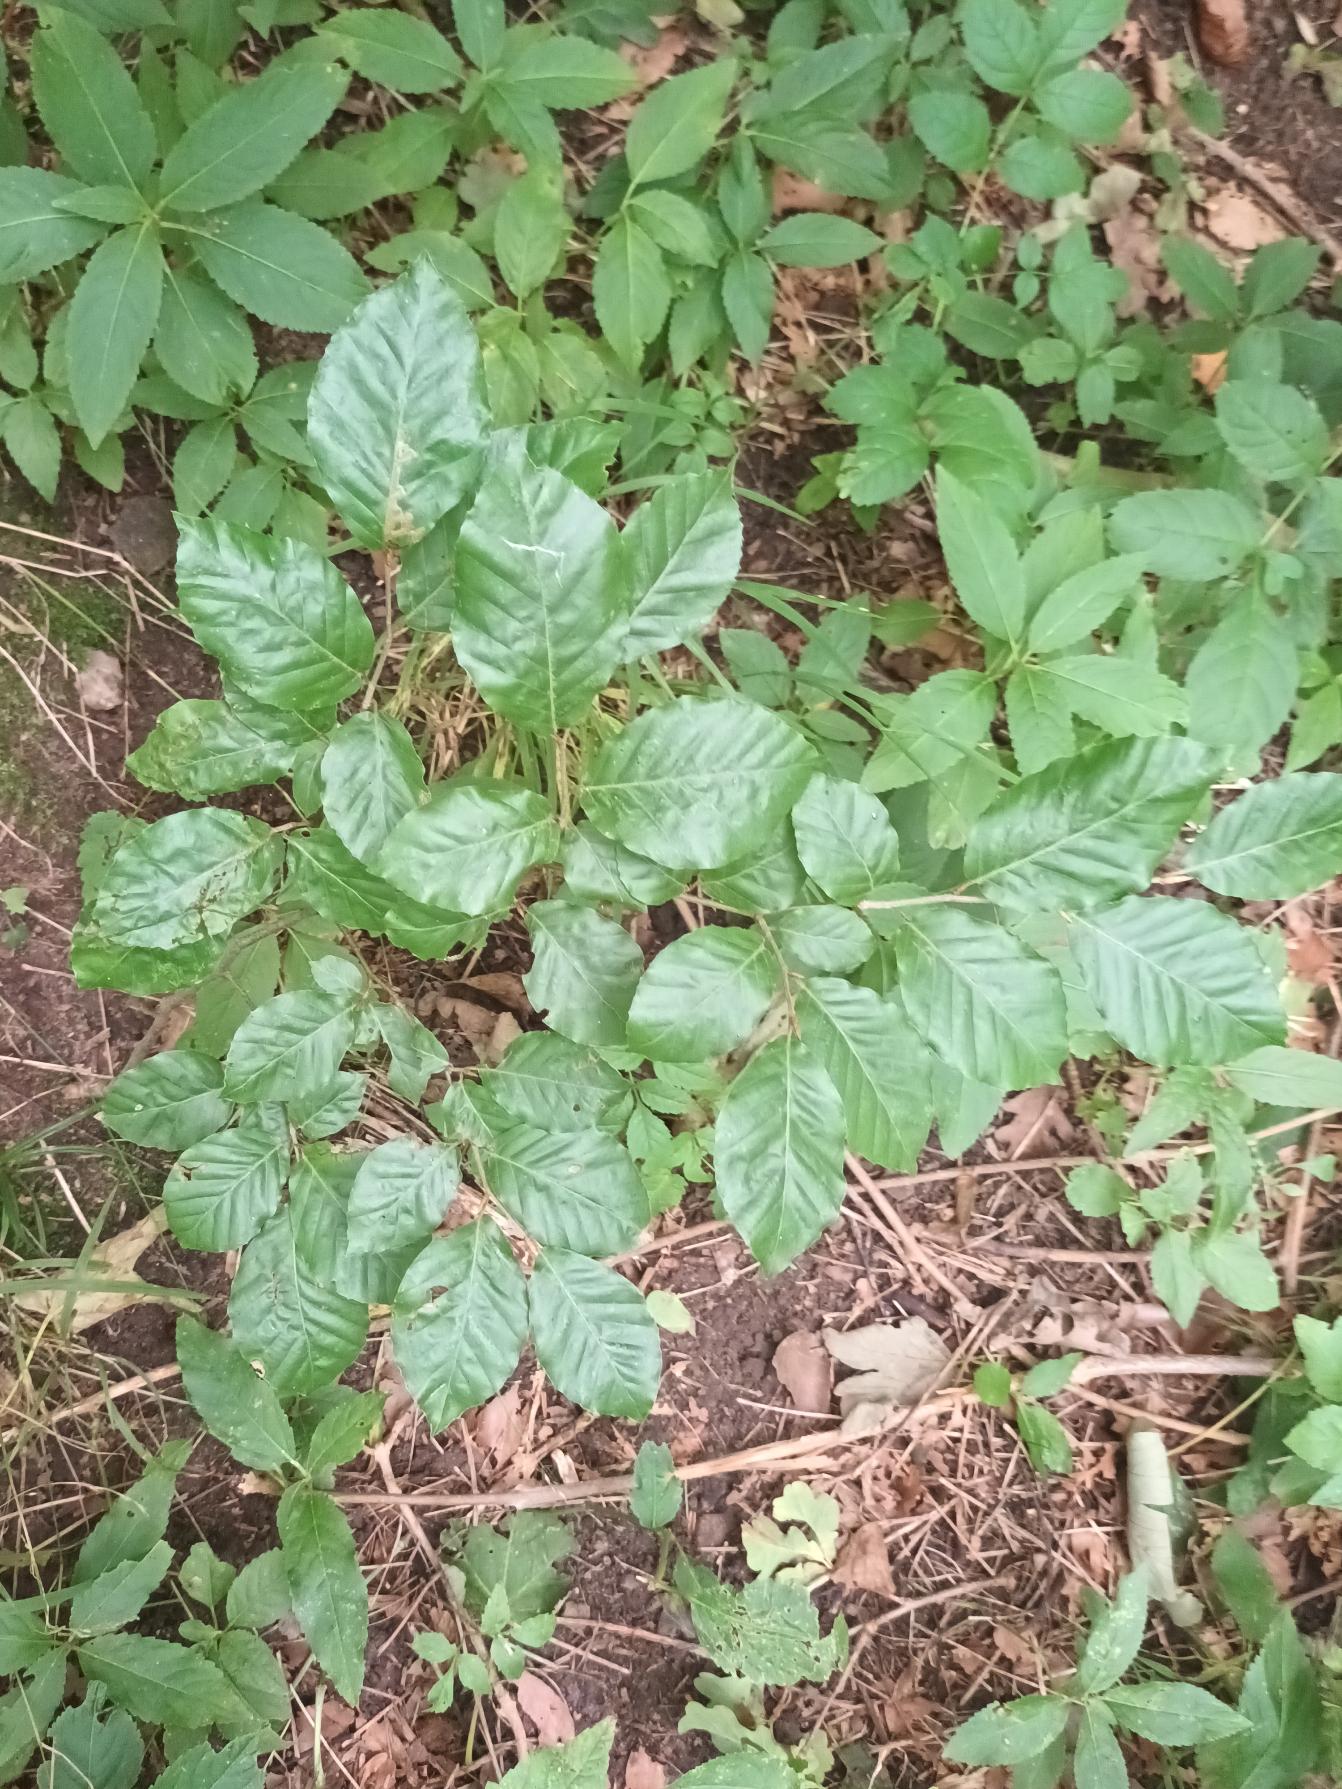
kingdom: Plantae
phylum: Tracheophyta
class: Magnoliopsida
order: Fagales
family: Fagaceae
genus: Fagus
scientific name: Fagus sylvatica
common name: Bøg
